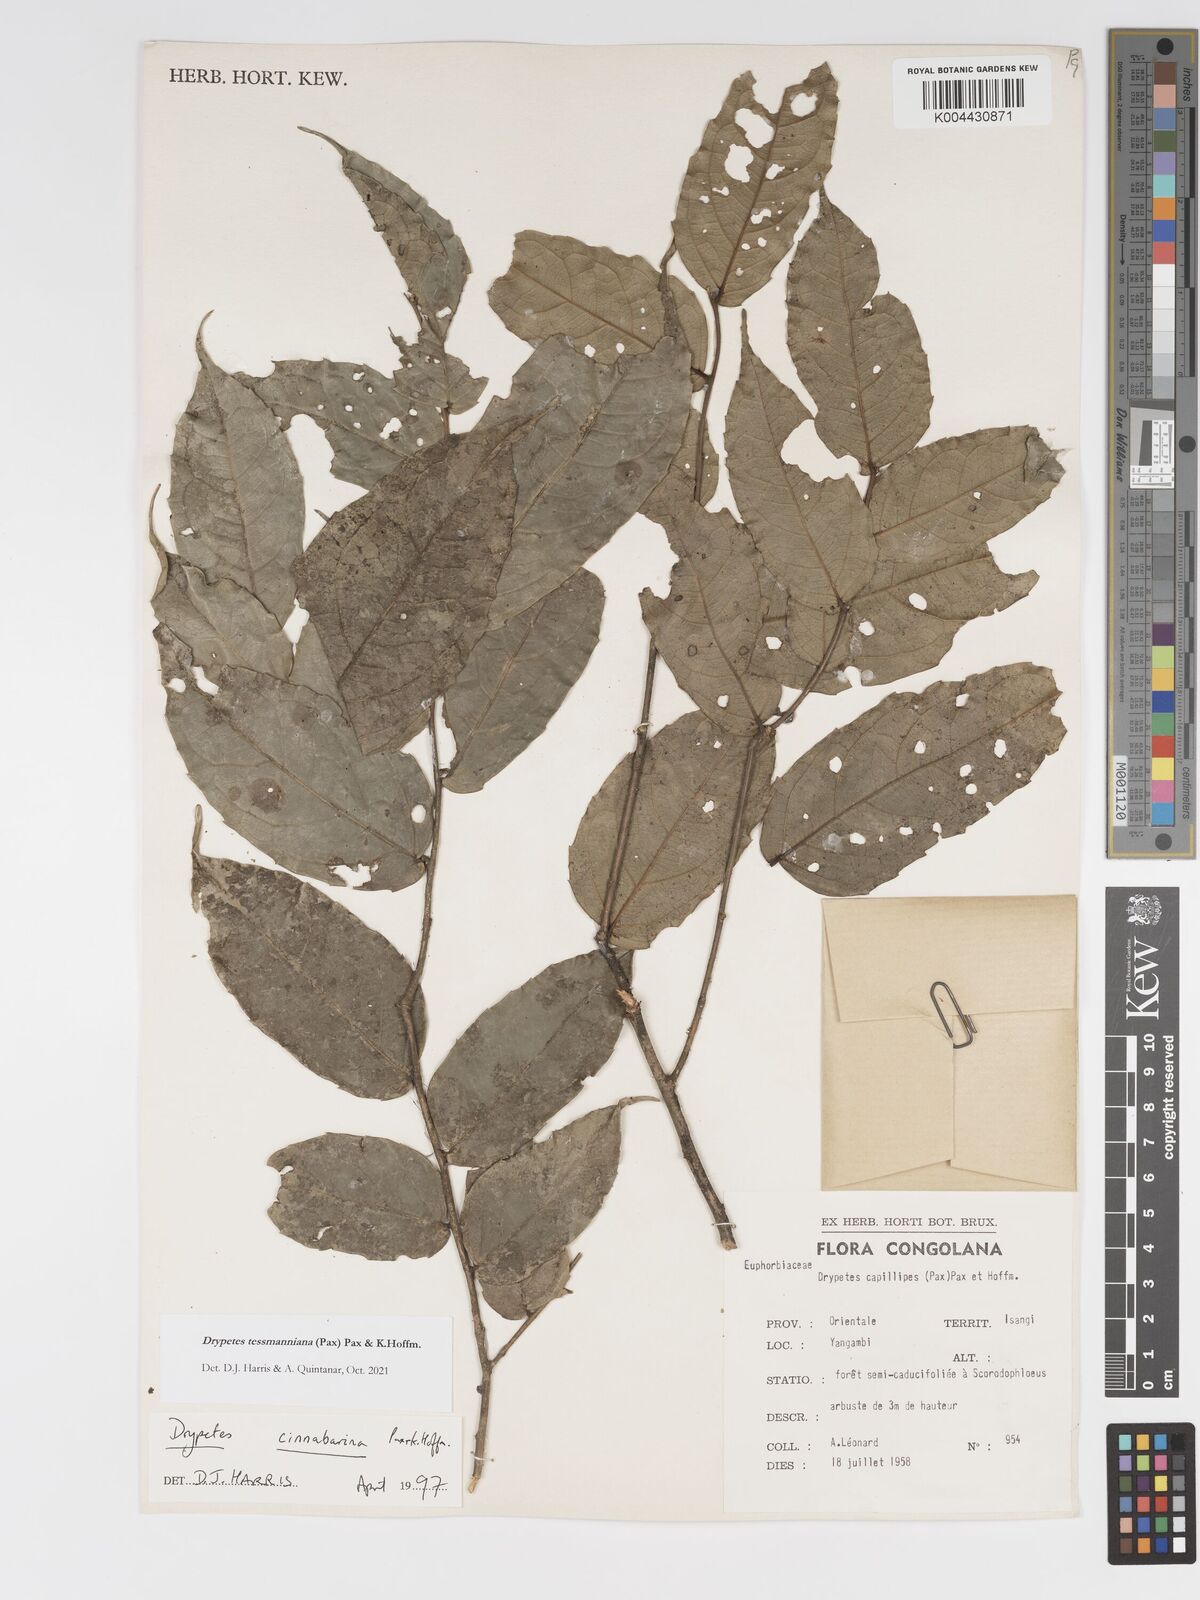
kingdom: Plantae
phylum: Tracheophyta
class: Magnoliopsida
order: Malpighiales
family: Putranjivaceae
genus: Drypetes
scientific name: Drypetes tessmanniana
